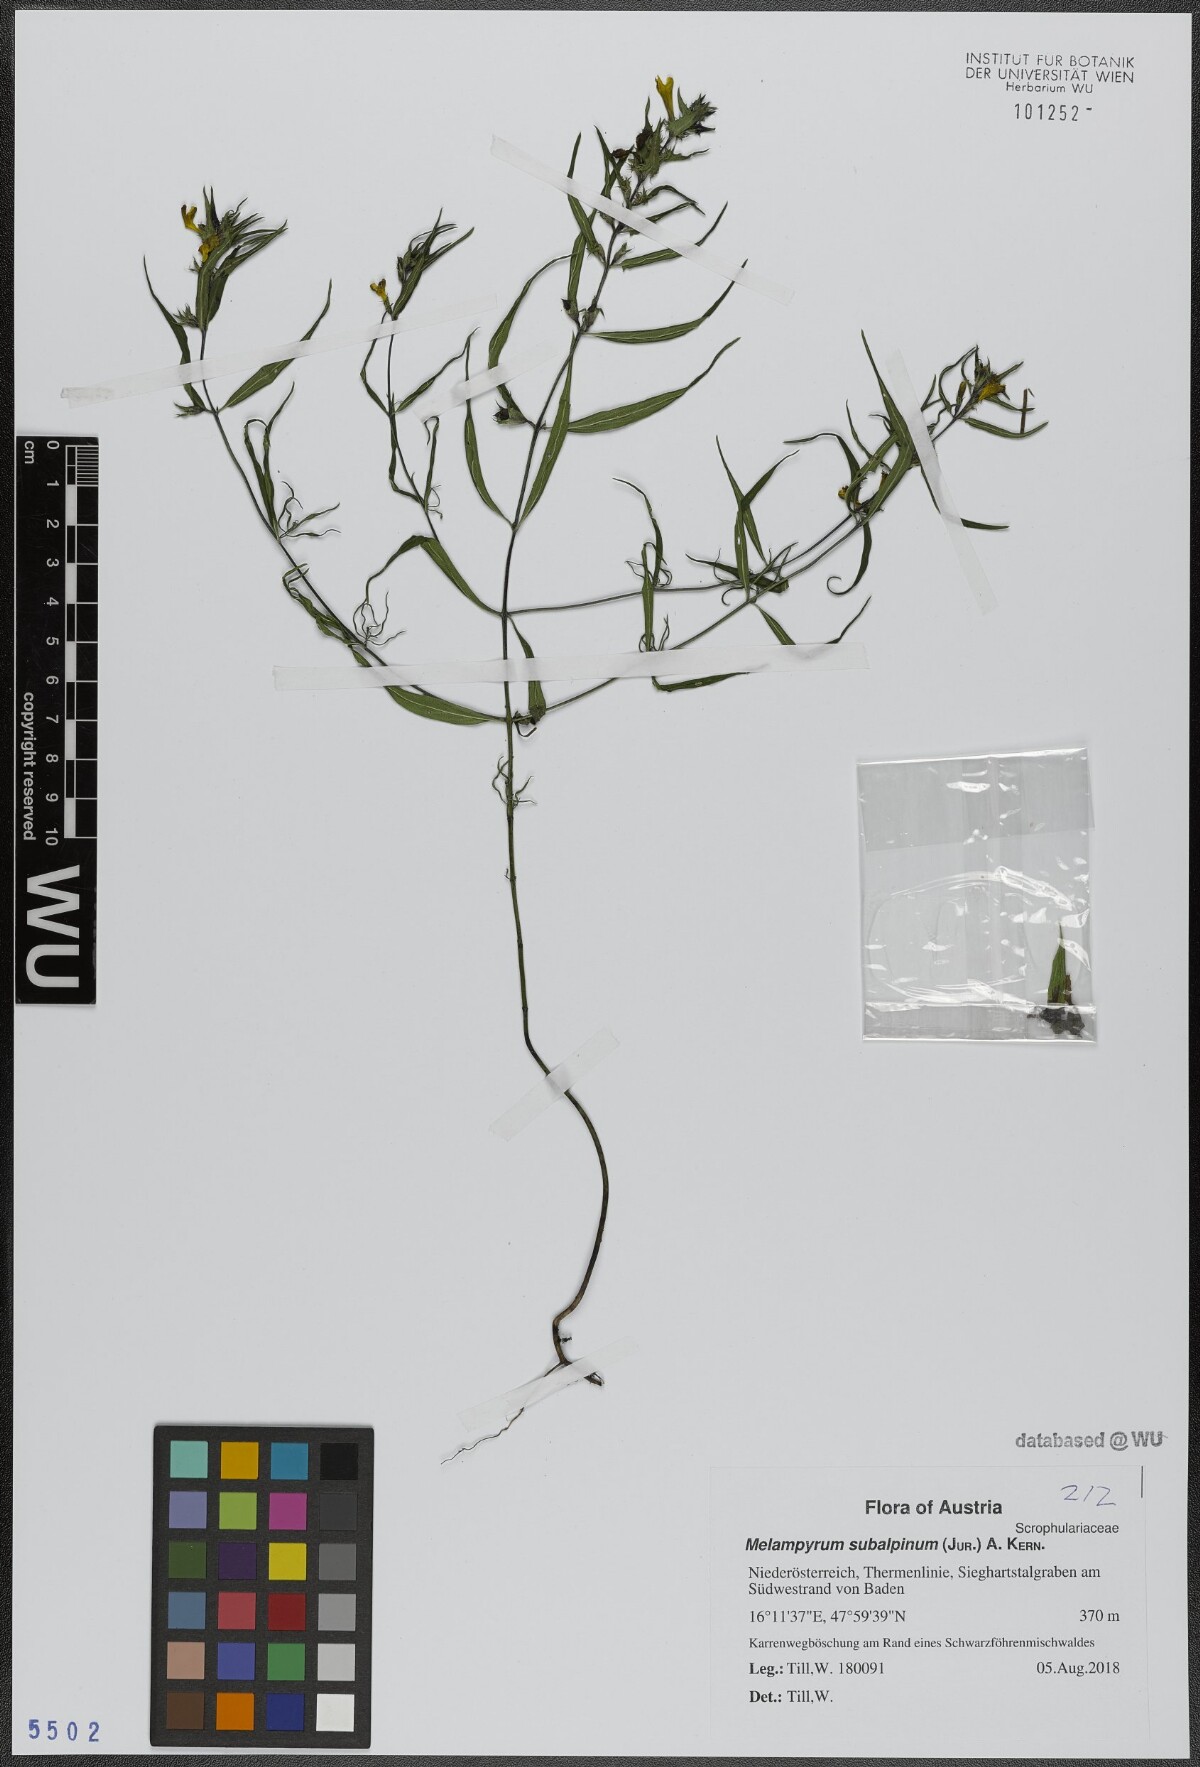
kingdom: Plantae
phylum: Tracheophyta
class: Magnoliopsida
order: Lamiales
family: Orobanchaceae
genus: Melampyrum
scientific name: Melampyrum subalpinum
